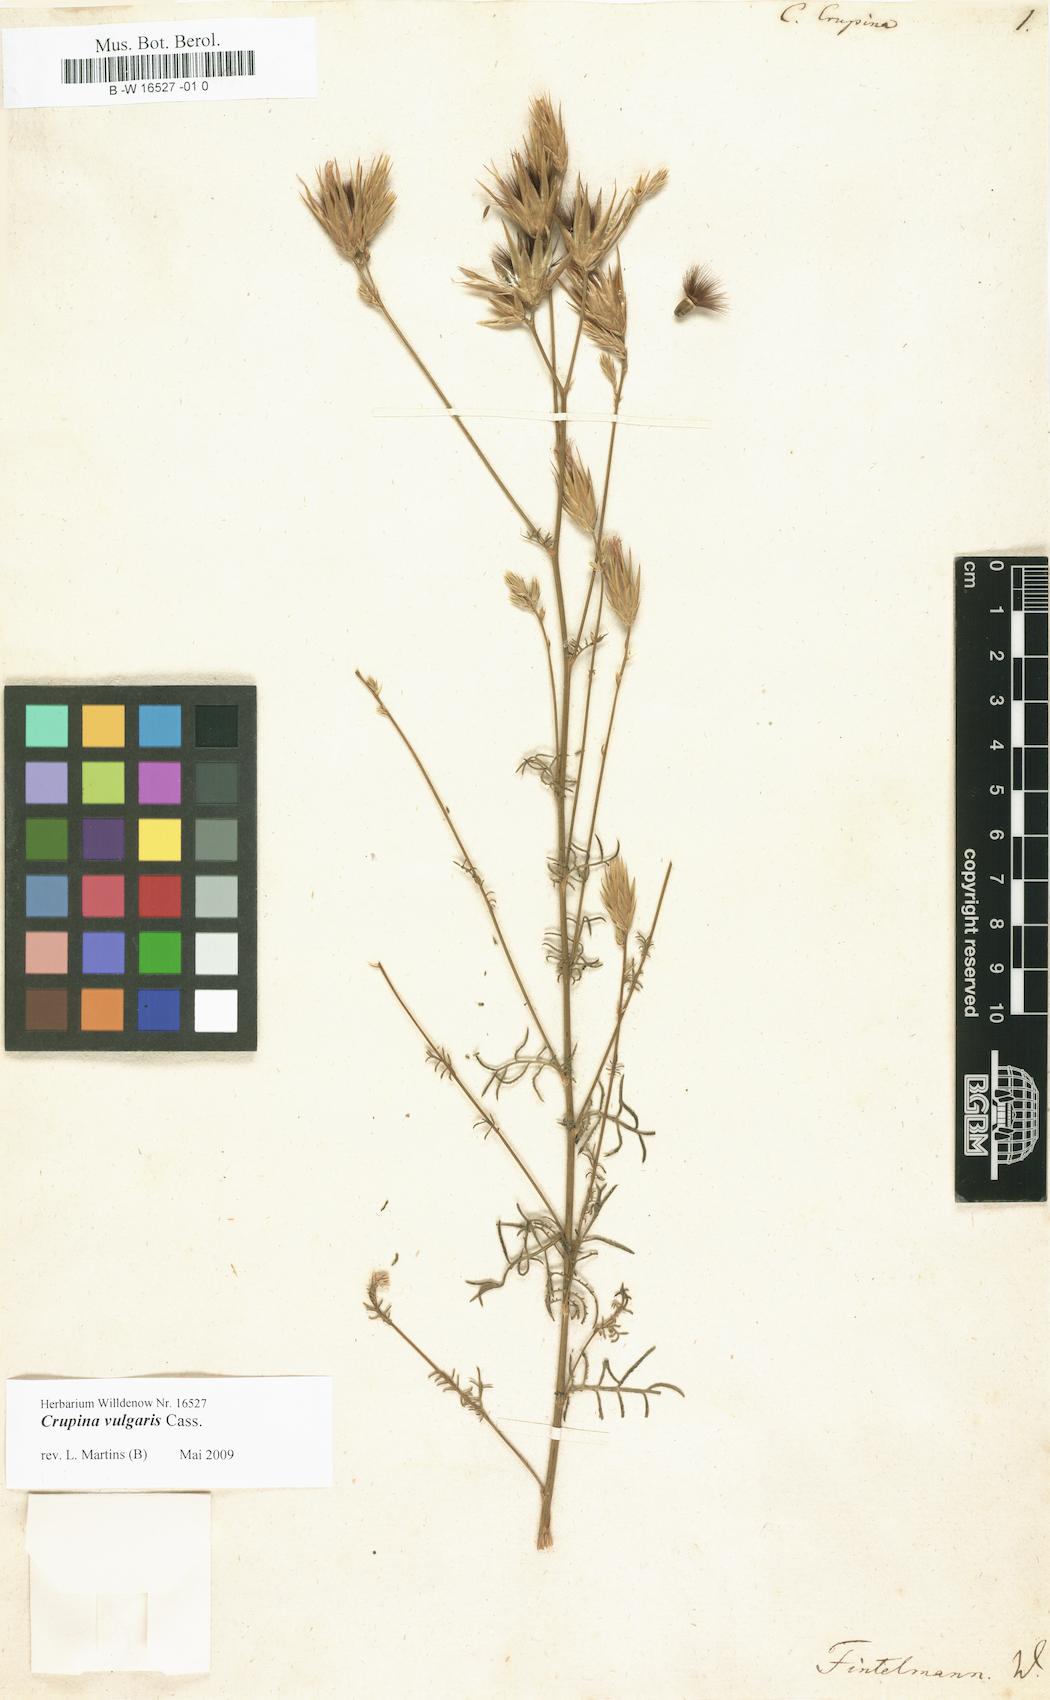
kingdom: Plantae
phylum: Tracheophyta
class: Magnoliopsida
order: Asterales
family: Asteraceae
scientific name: Asteraceae
